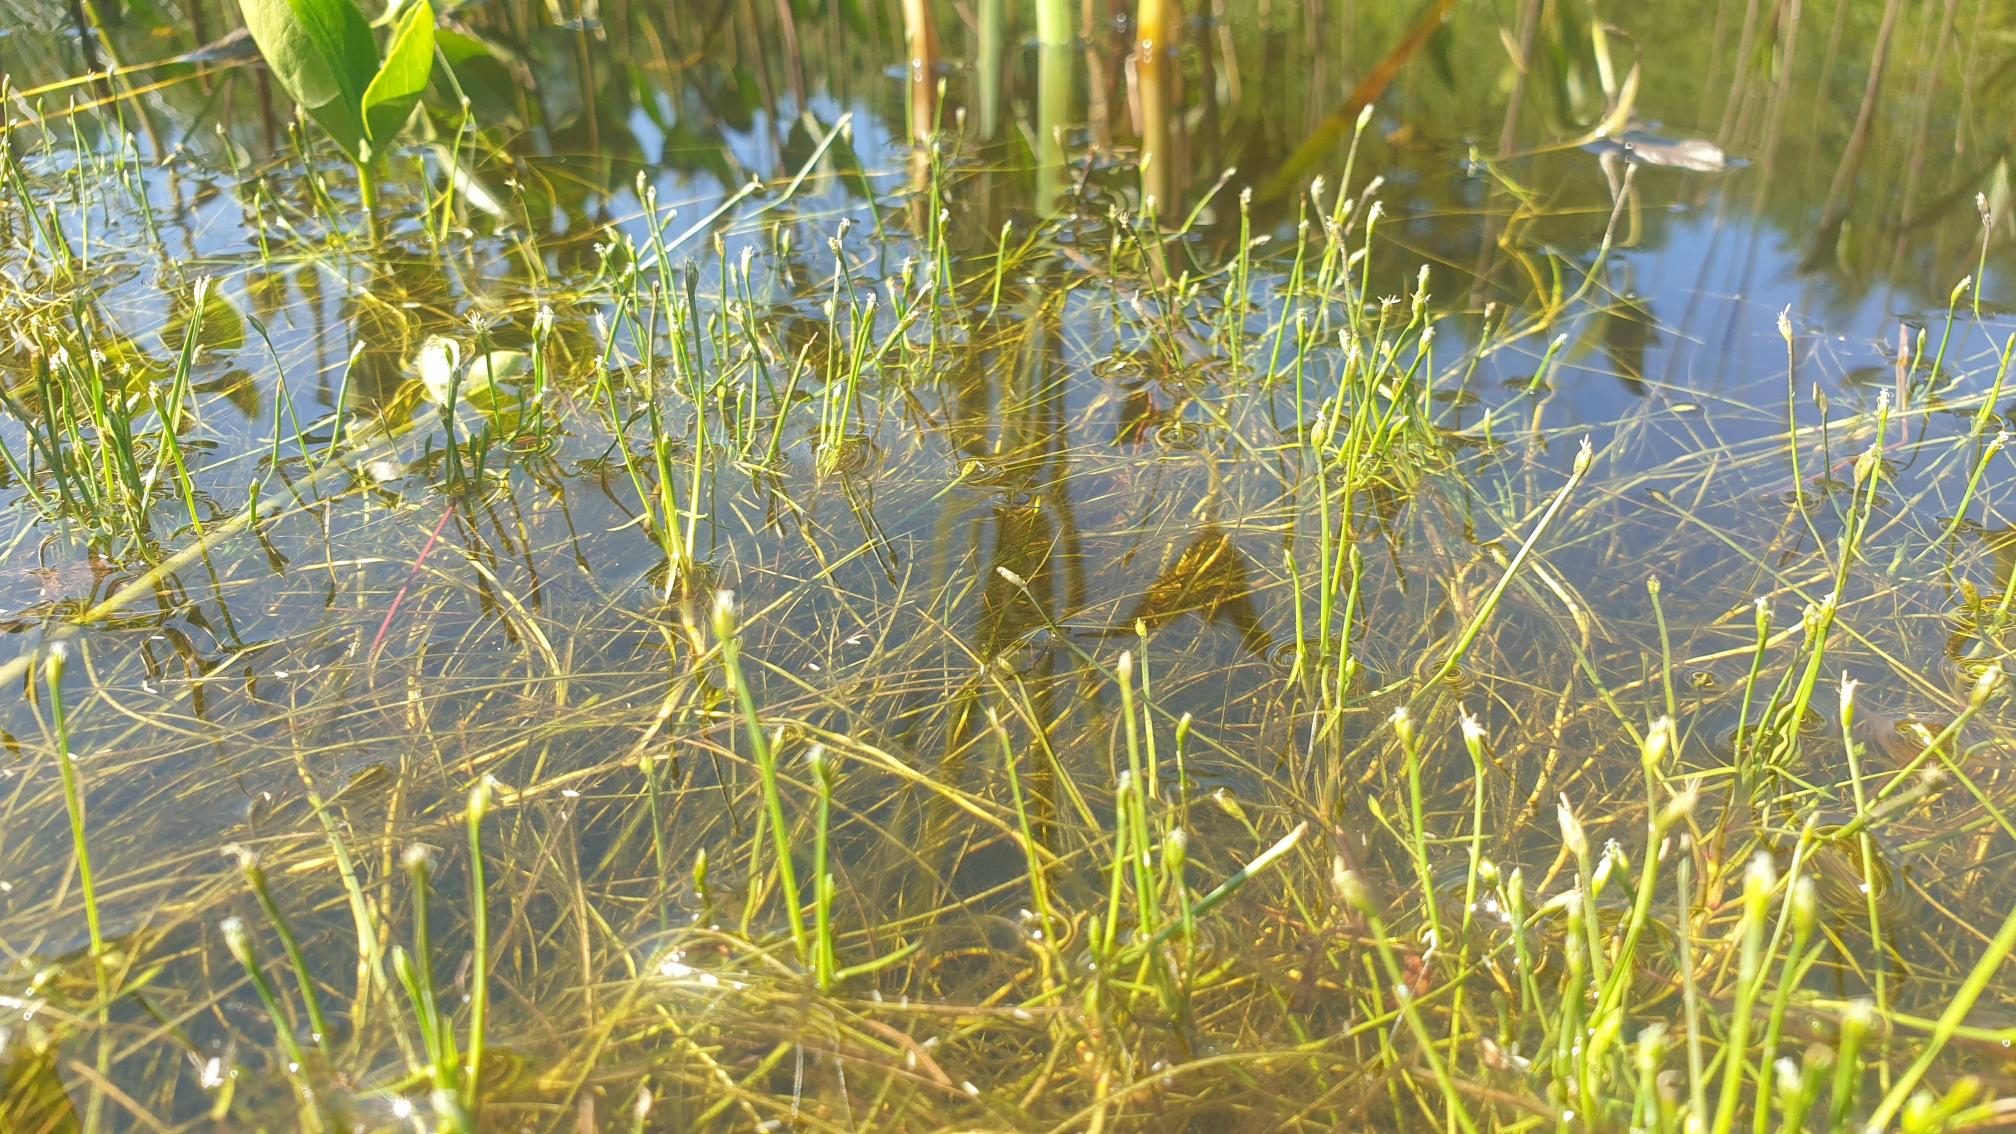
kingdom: Plantae
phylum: Tracheophyta
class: Liliopsida
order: Poales
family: Cyperaceae
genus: Isolepis
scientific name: Isolepis fluitans
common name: Flydende kogleaks
